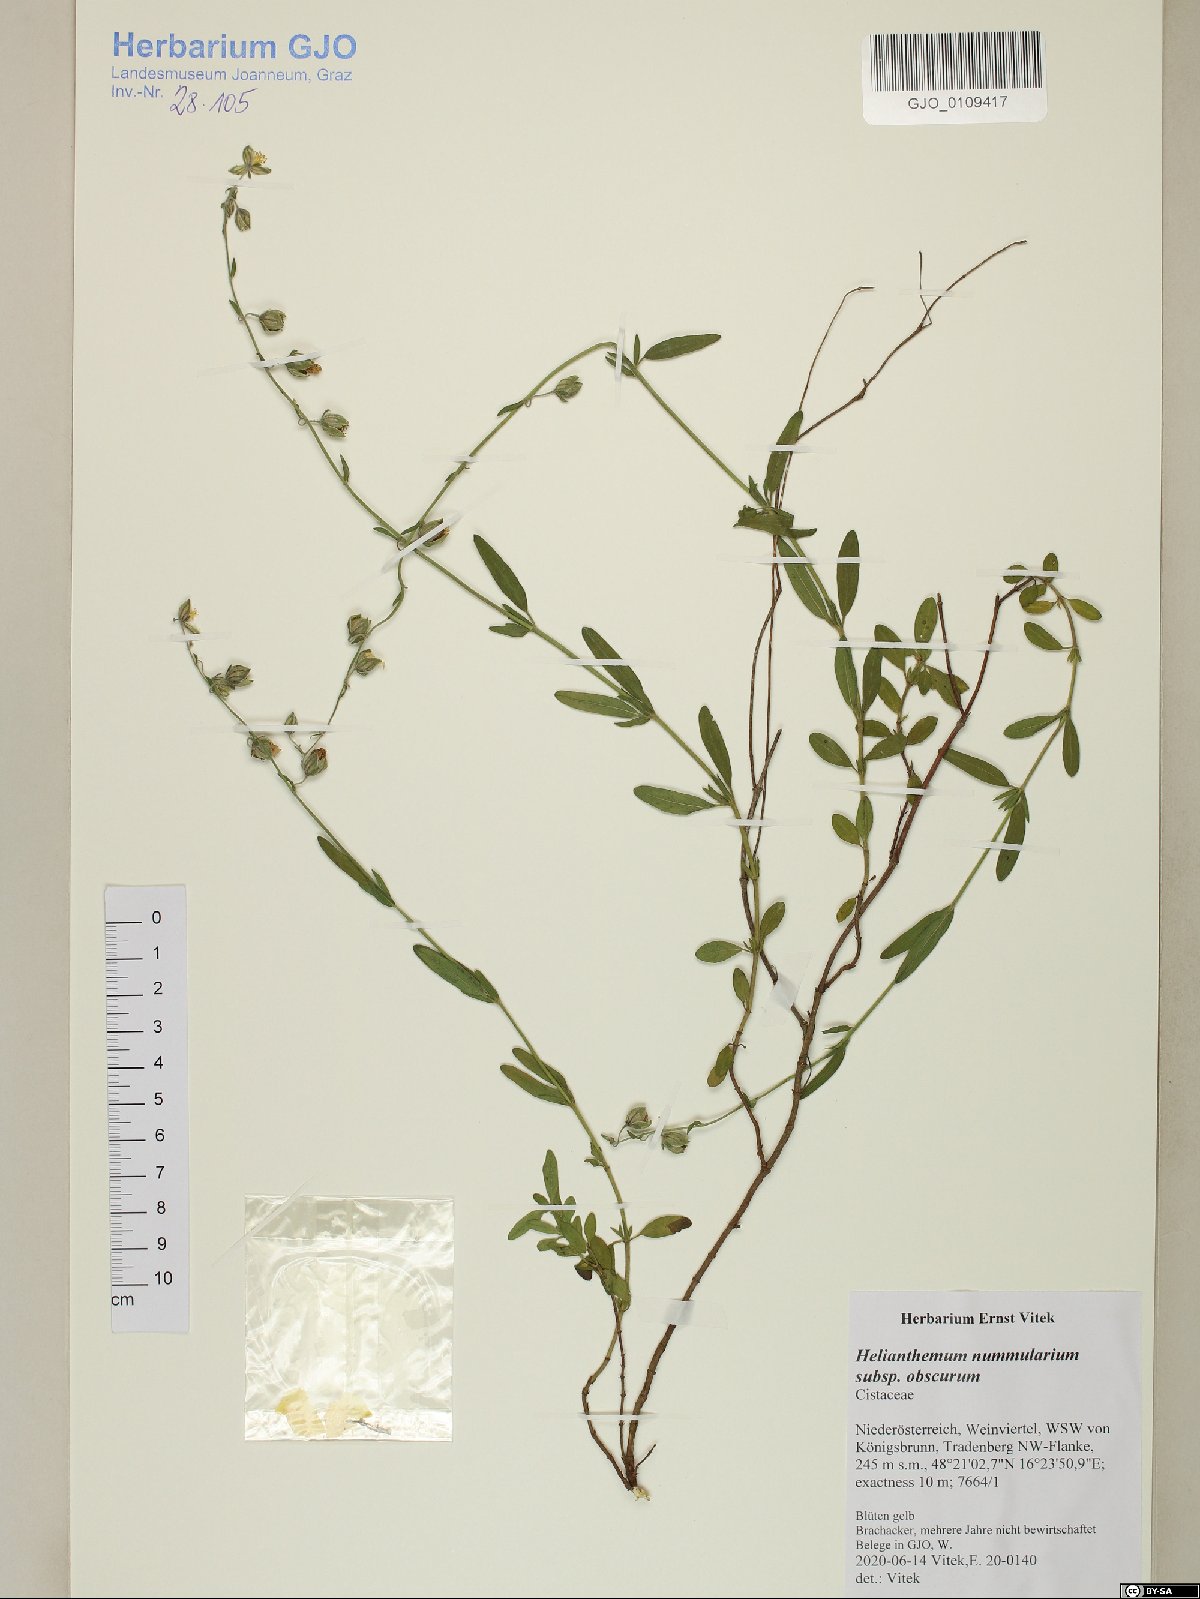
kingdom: Plantae
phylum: Tracheophyta
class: Magnoliopsida
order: Malvales
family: Cistaceae
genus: Helianthemum
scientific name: Helianthemum nummularium
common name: Common rock-rose
